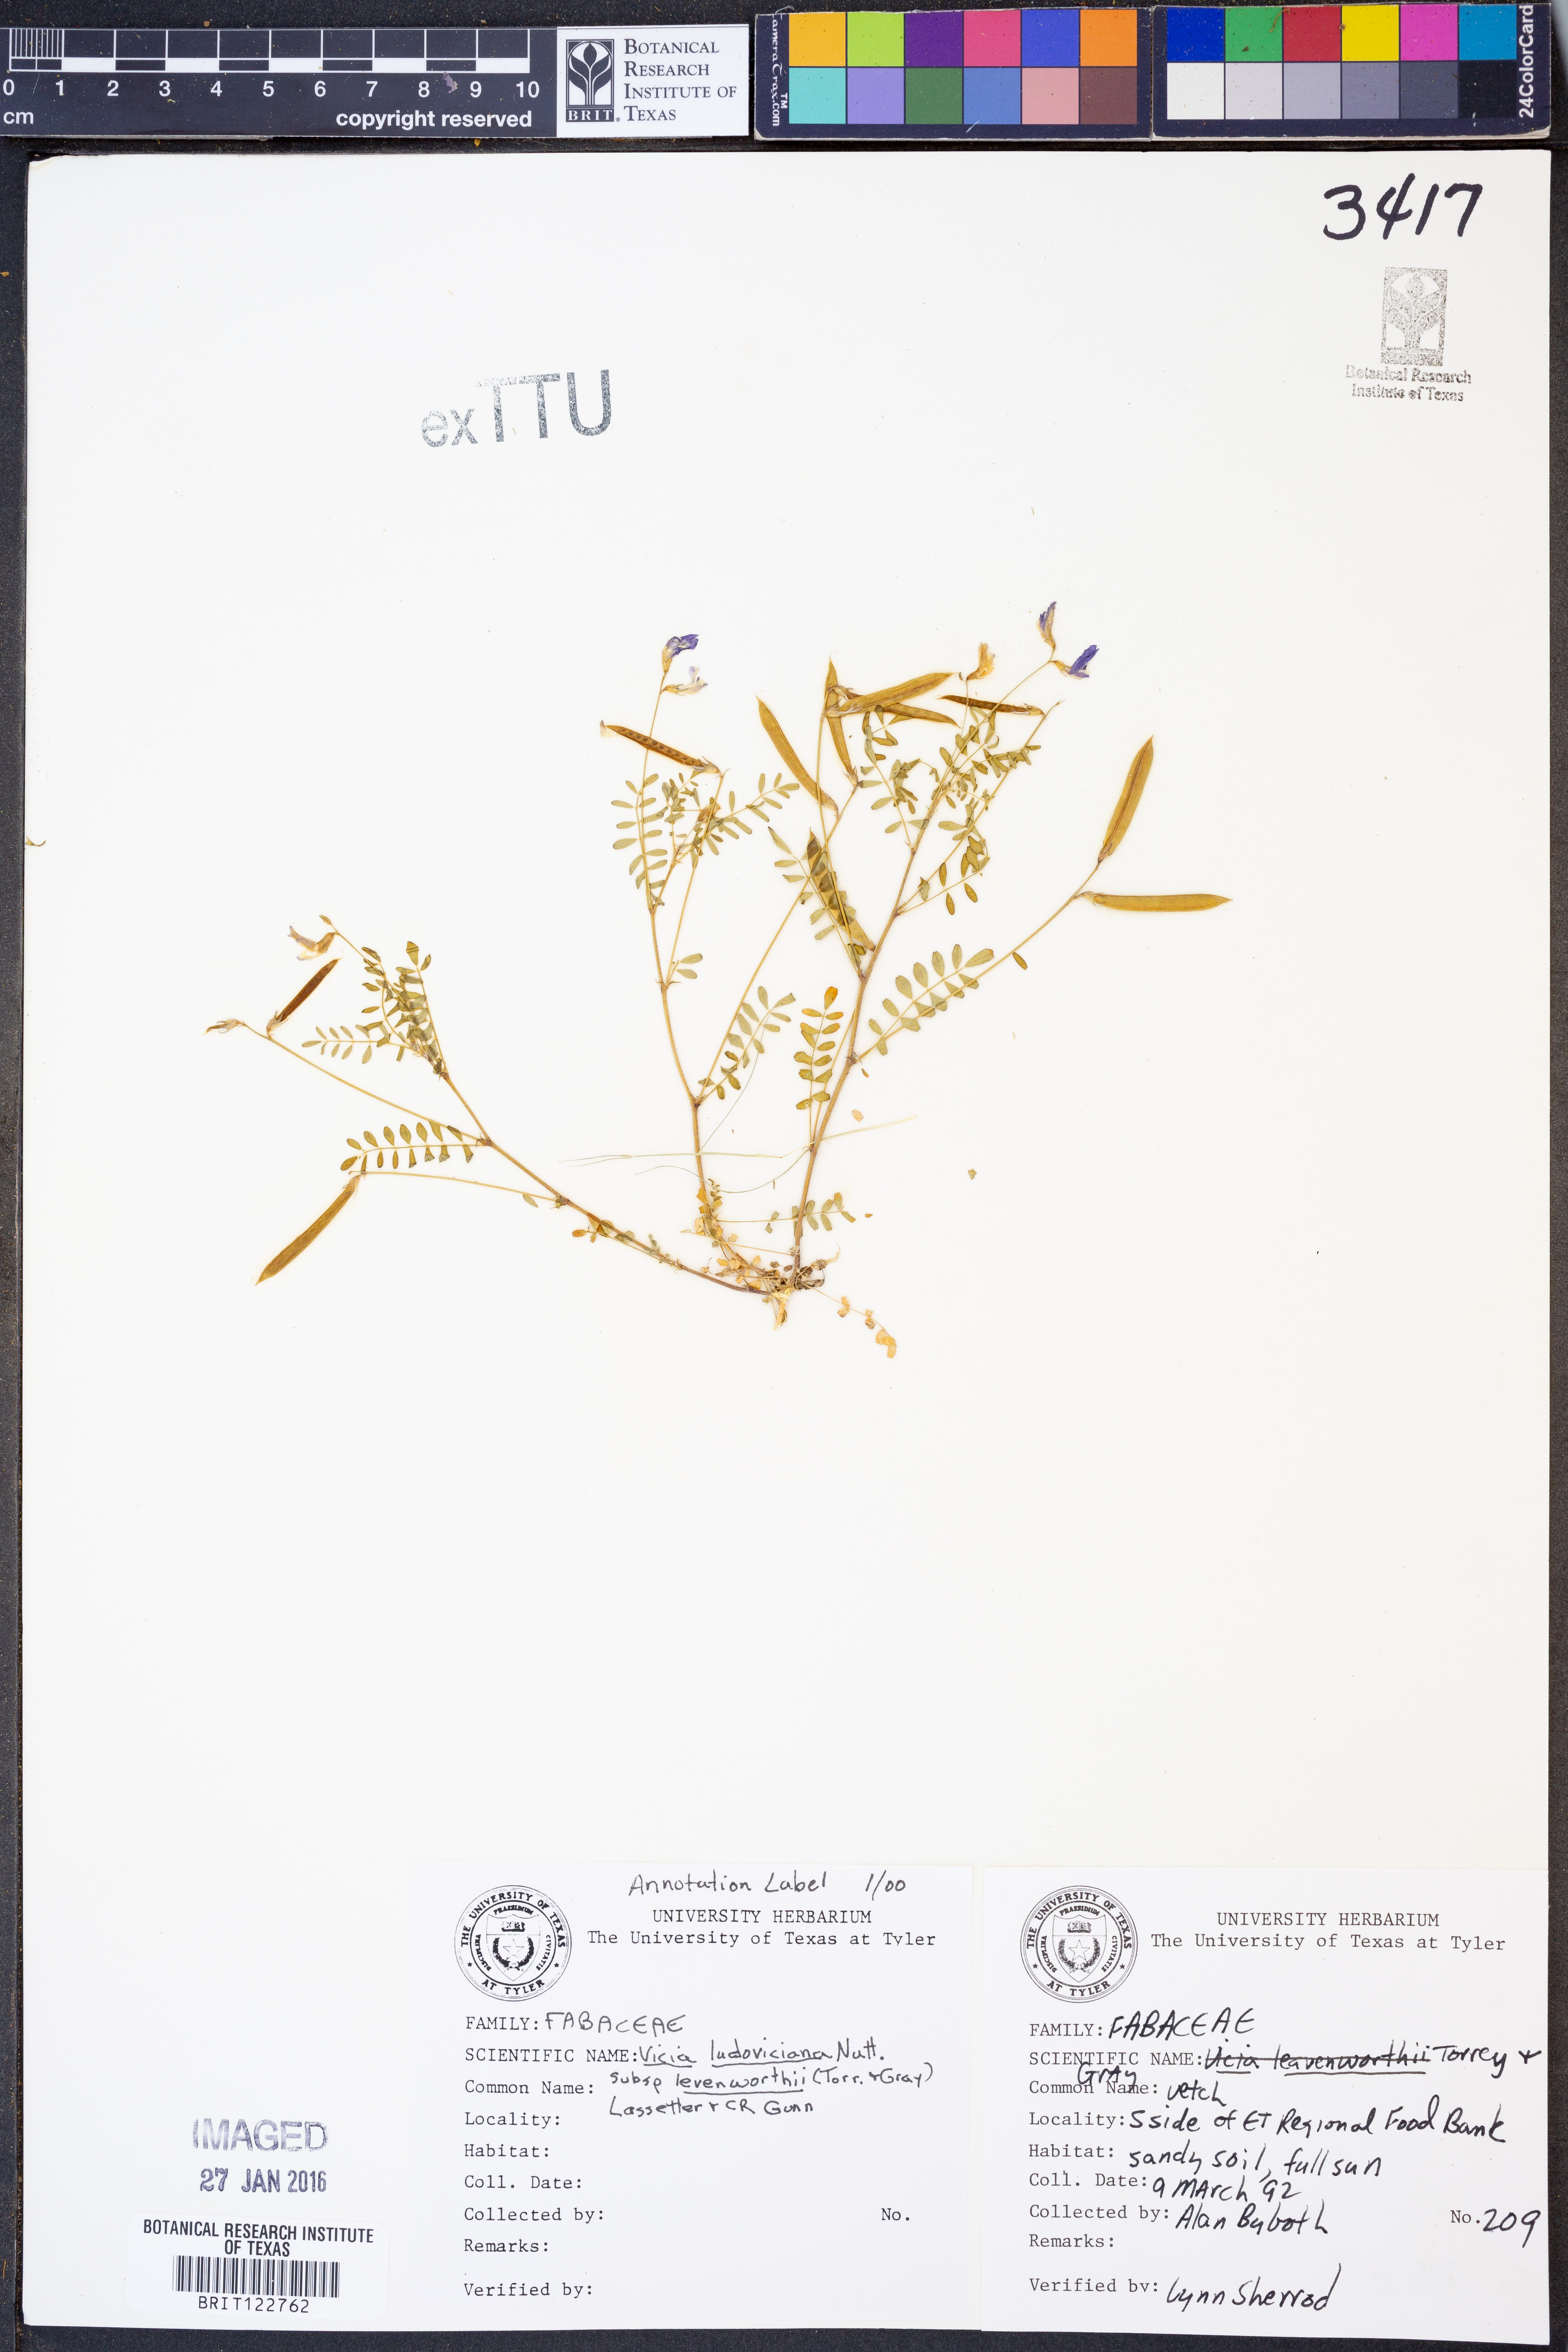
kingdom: Plantae
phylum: Tracheophyta
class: Magnoliopsida
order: Fabales
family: Fabaceae
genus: Vicia
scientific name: Vicia ludoviciana
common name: Louisiana vetch
